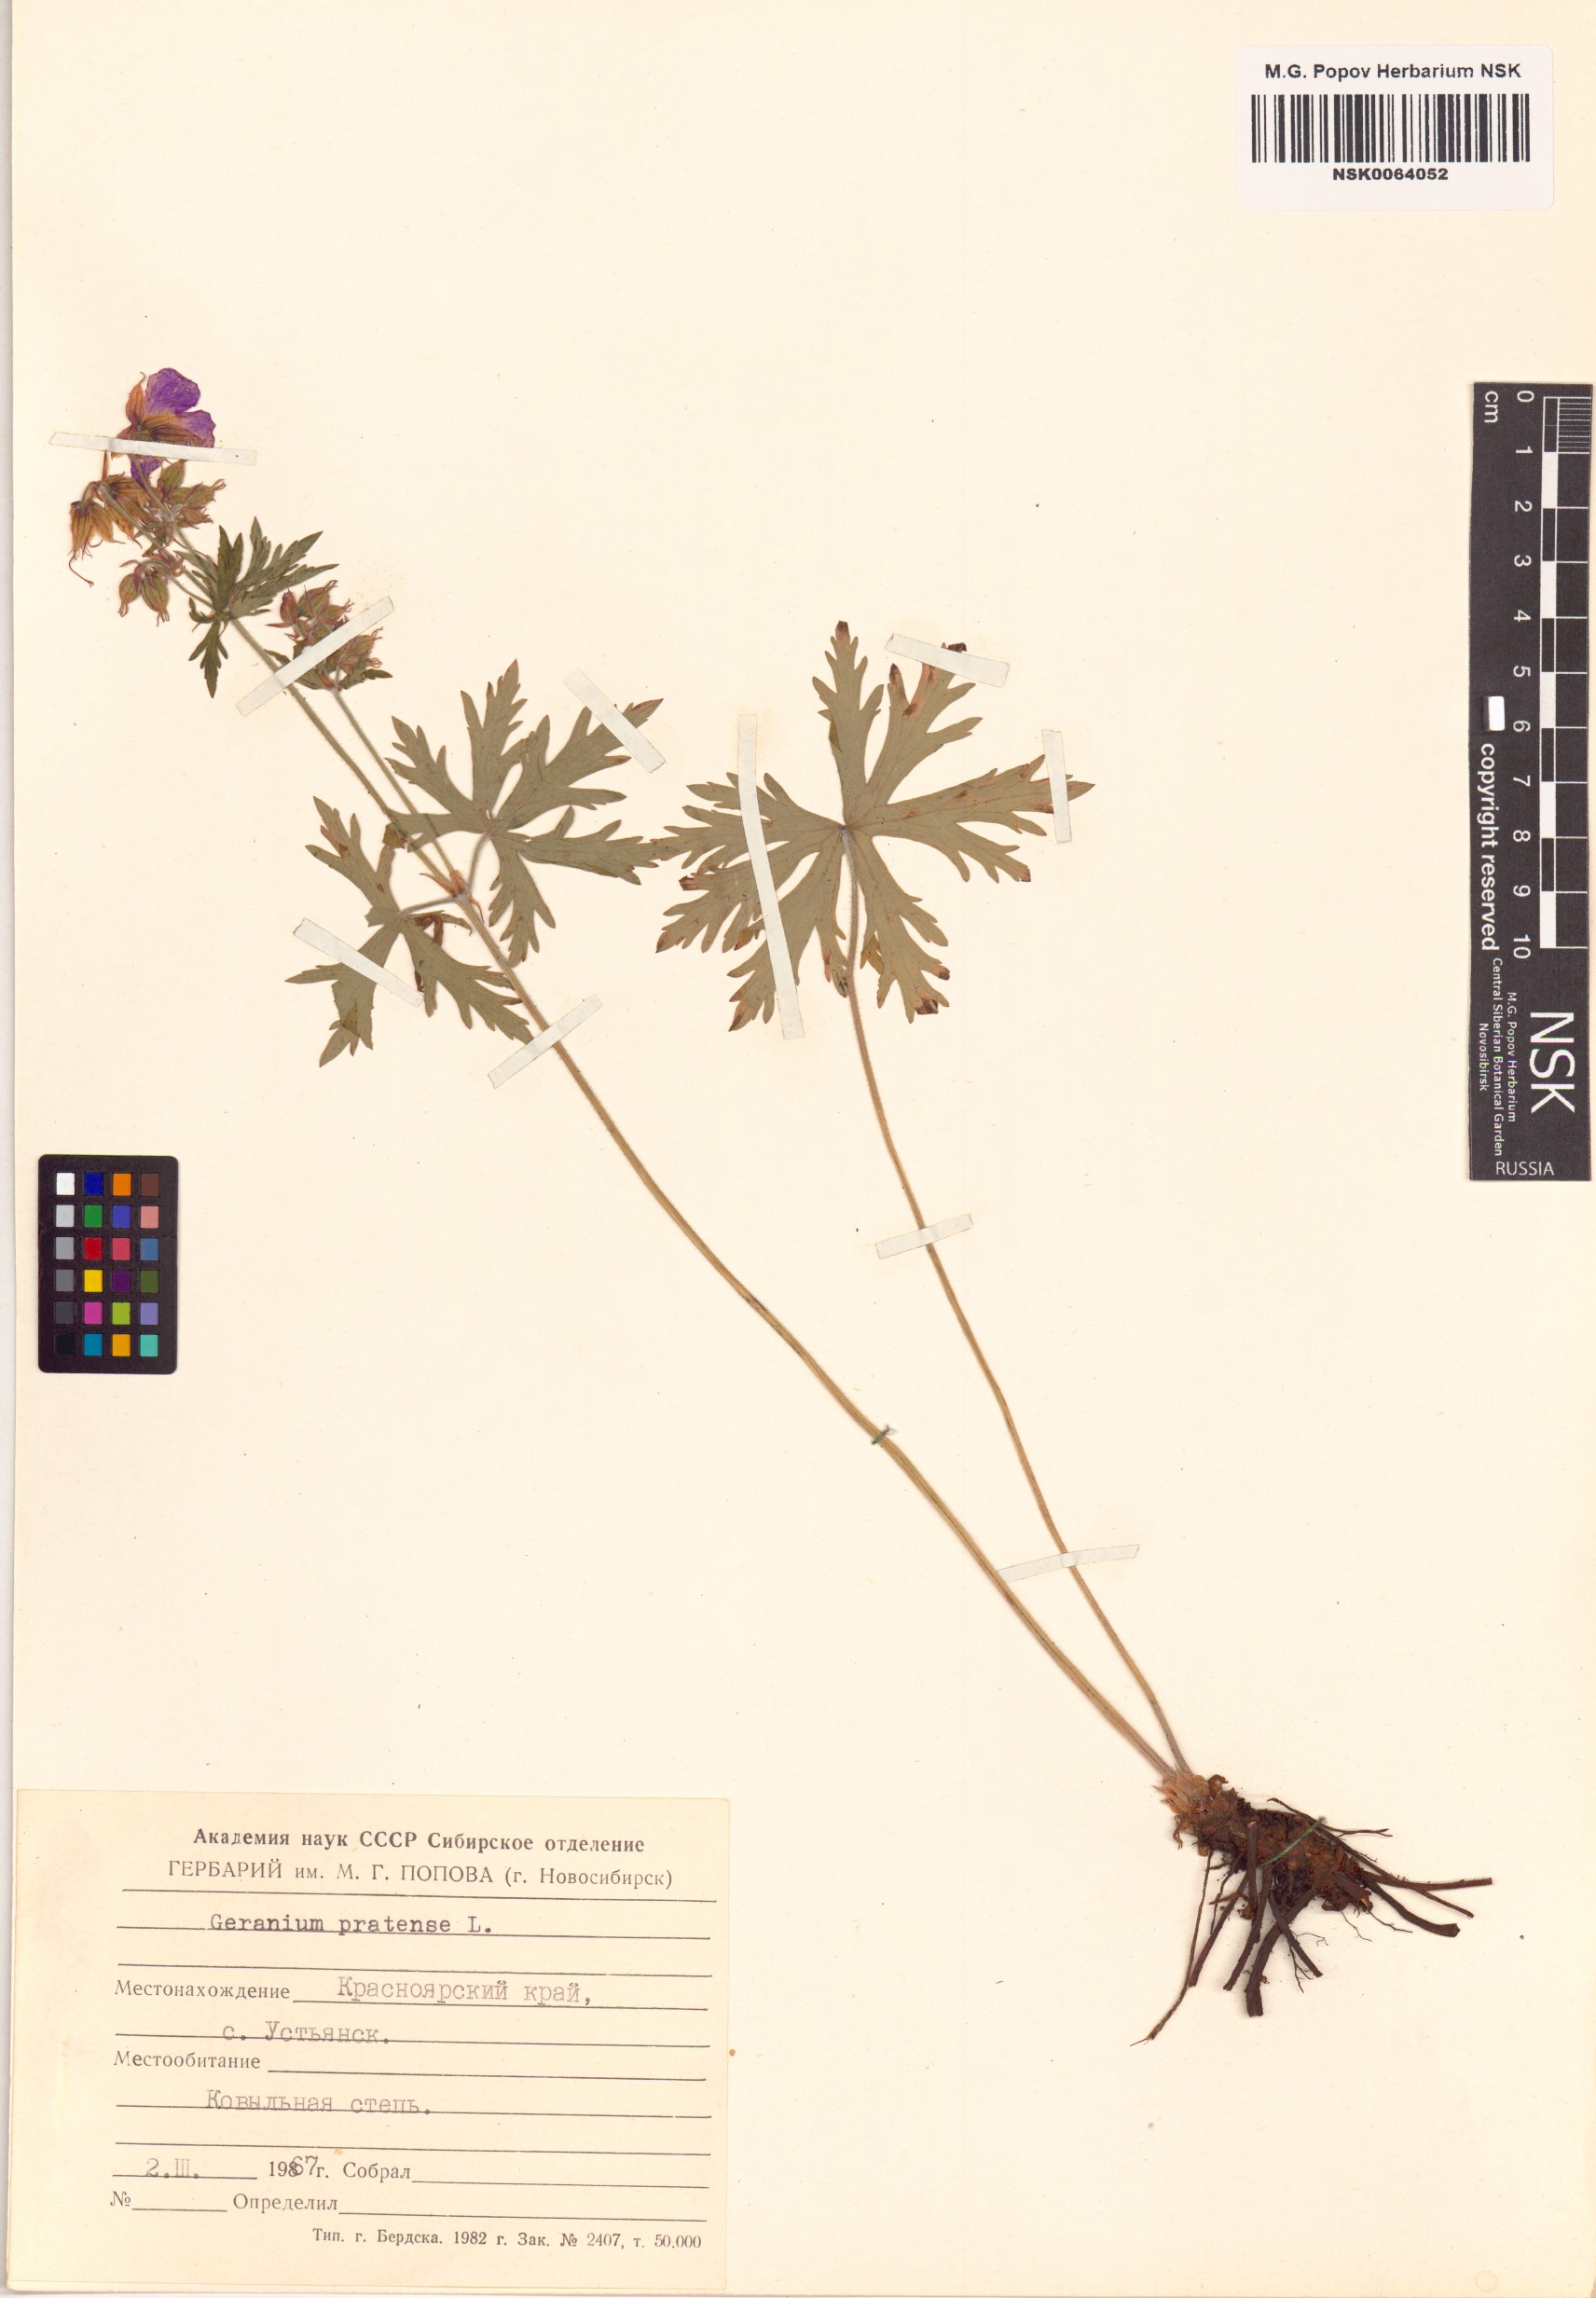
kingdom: Plantae
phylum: Tracheophyta
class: Magnoliopsida
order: Geraniales
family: Geraniaceae
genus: Geranium
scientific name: Geranium pratense
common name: Meadow crane's-bill
